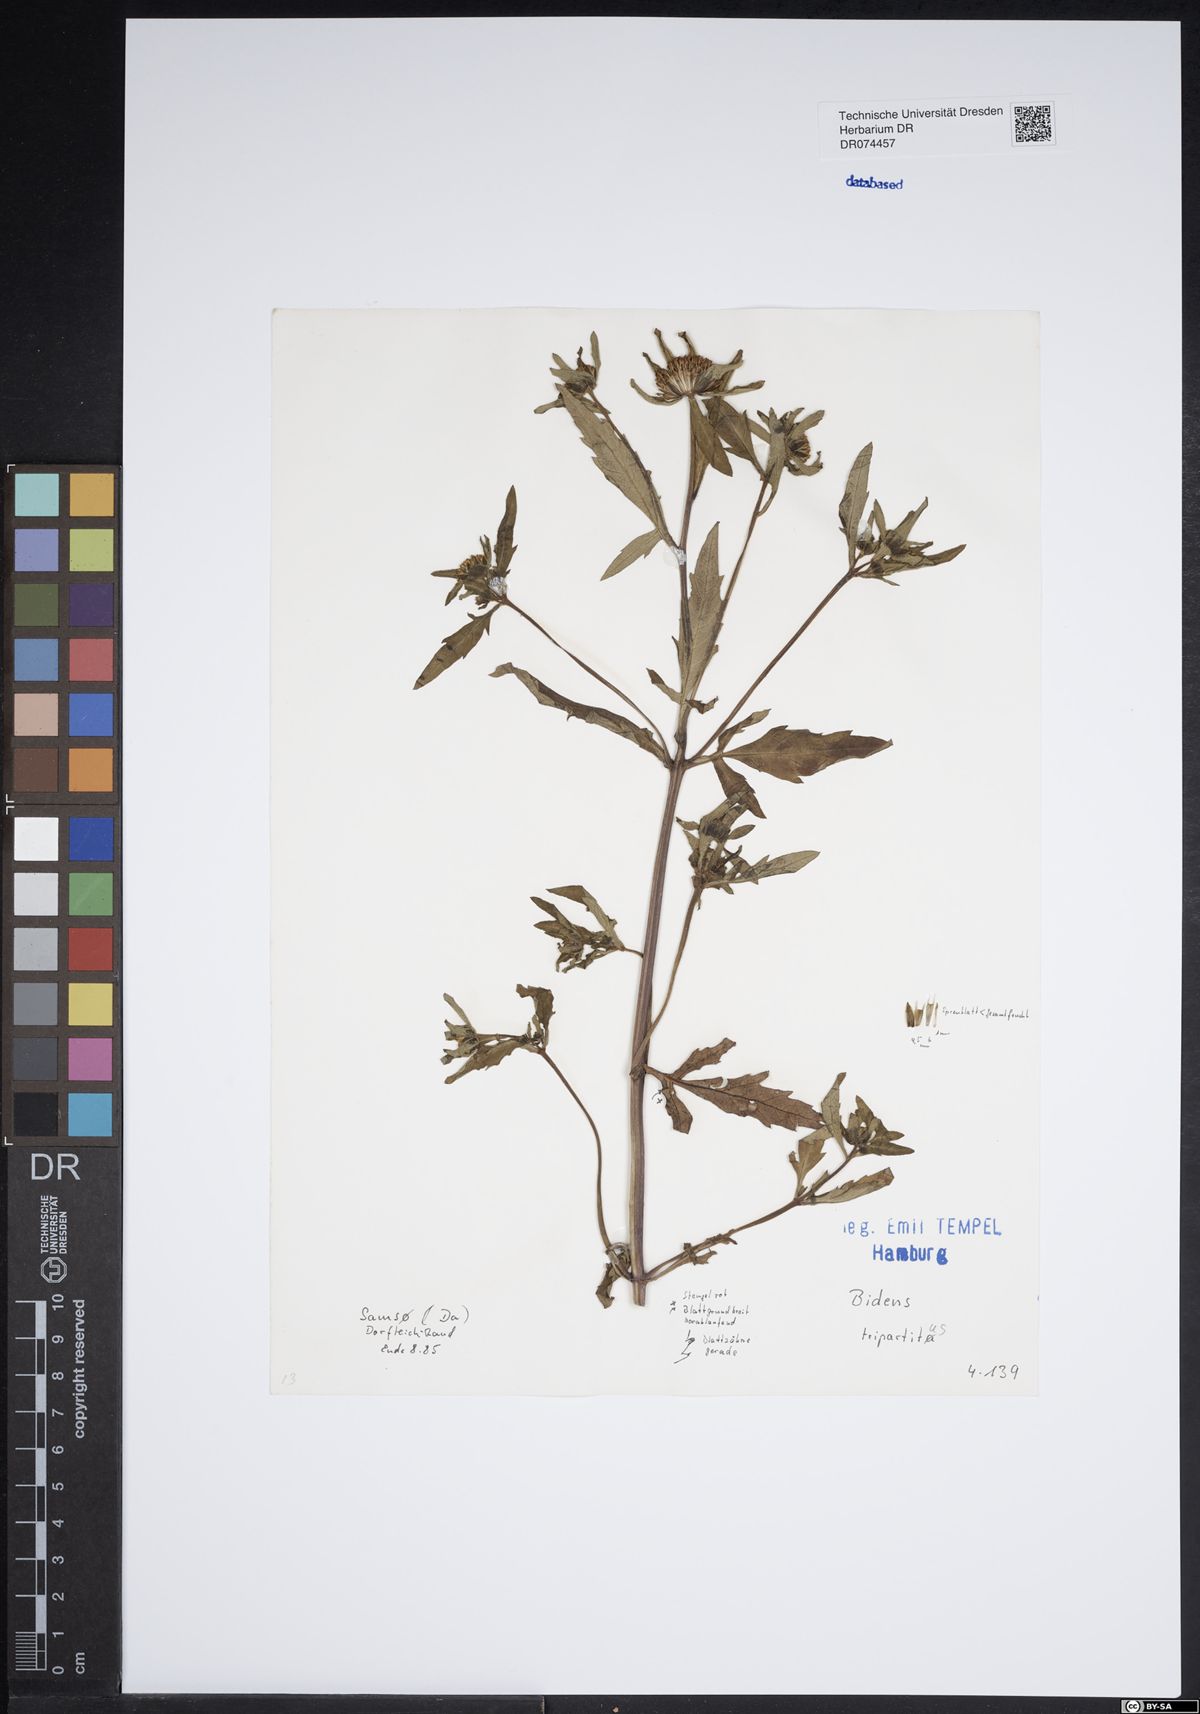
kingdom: Plantae
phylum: Tracheophyta
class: Magnoliopsida
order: Asterales
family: Asteraceae
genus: Bidens
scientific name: Bidens tripartita
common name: Trifid bur-marigold
